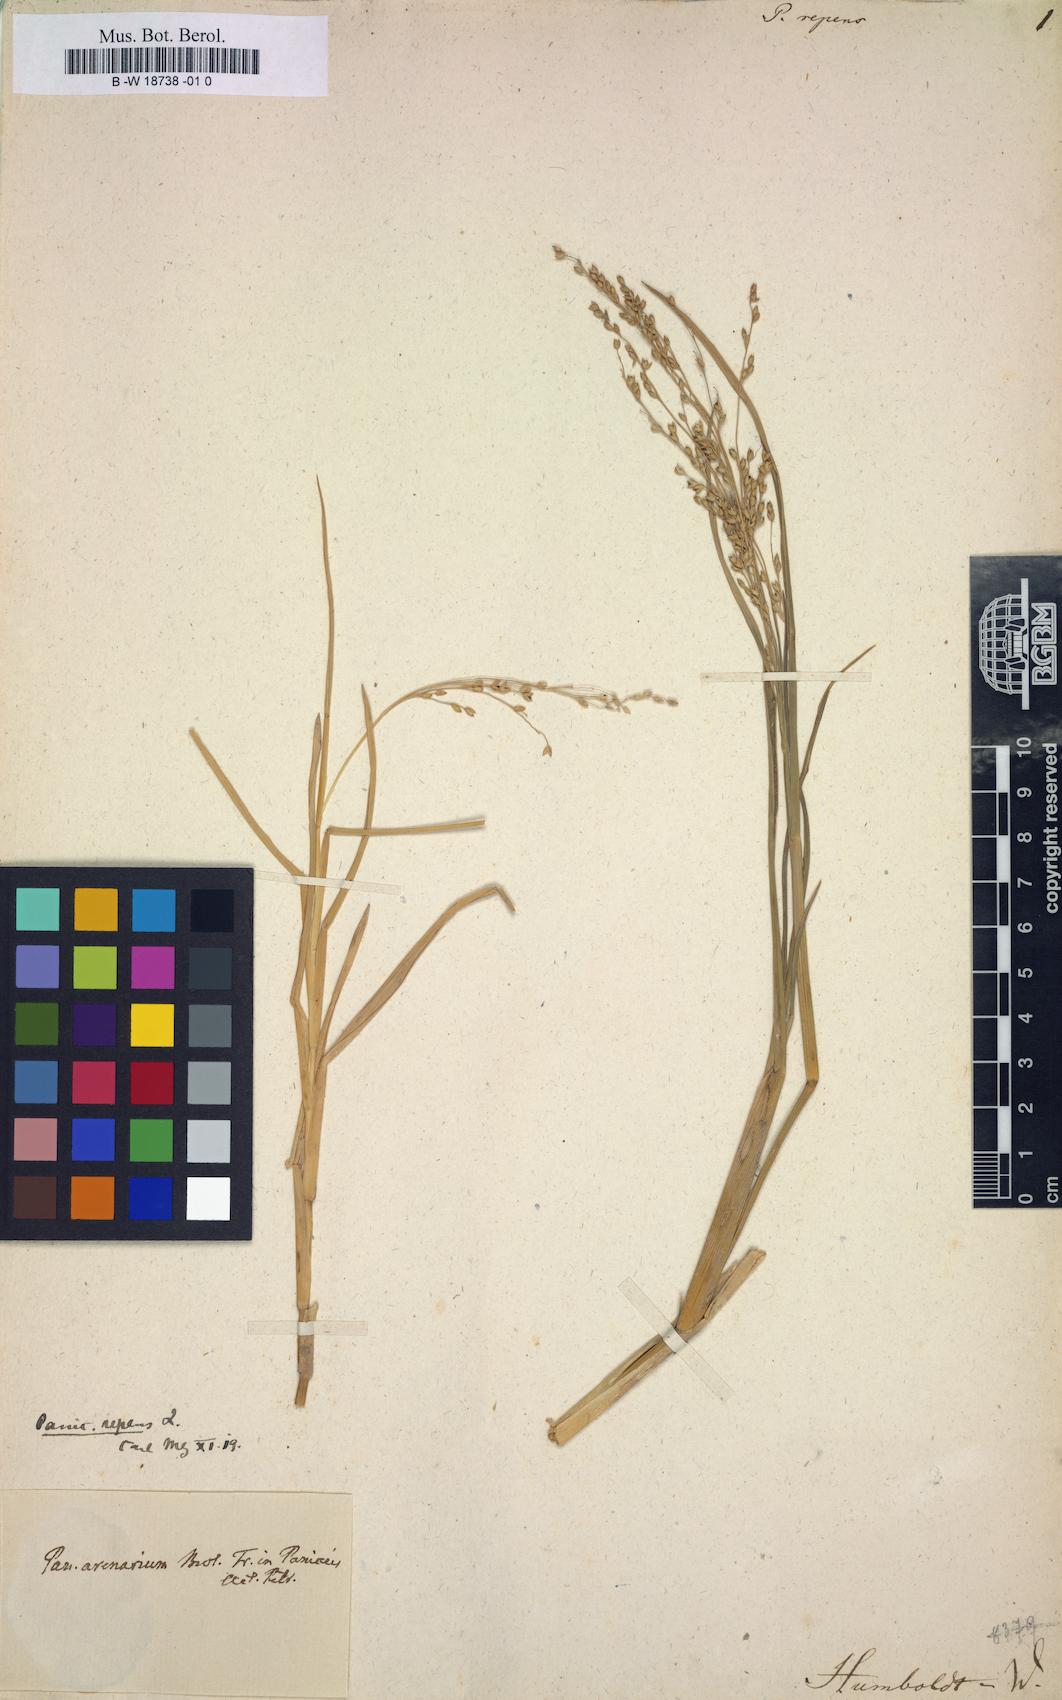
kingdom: Plantae
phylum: Tracheophyta
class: Liliopsida
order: Poales
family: Poaceae
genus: Panicum
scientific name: Panicum repens
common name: Torpedo grass
